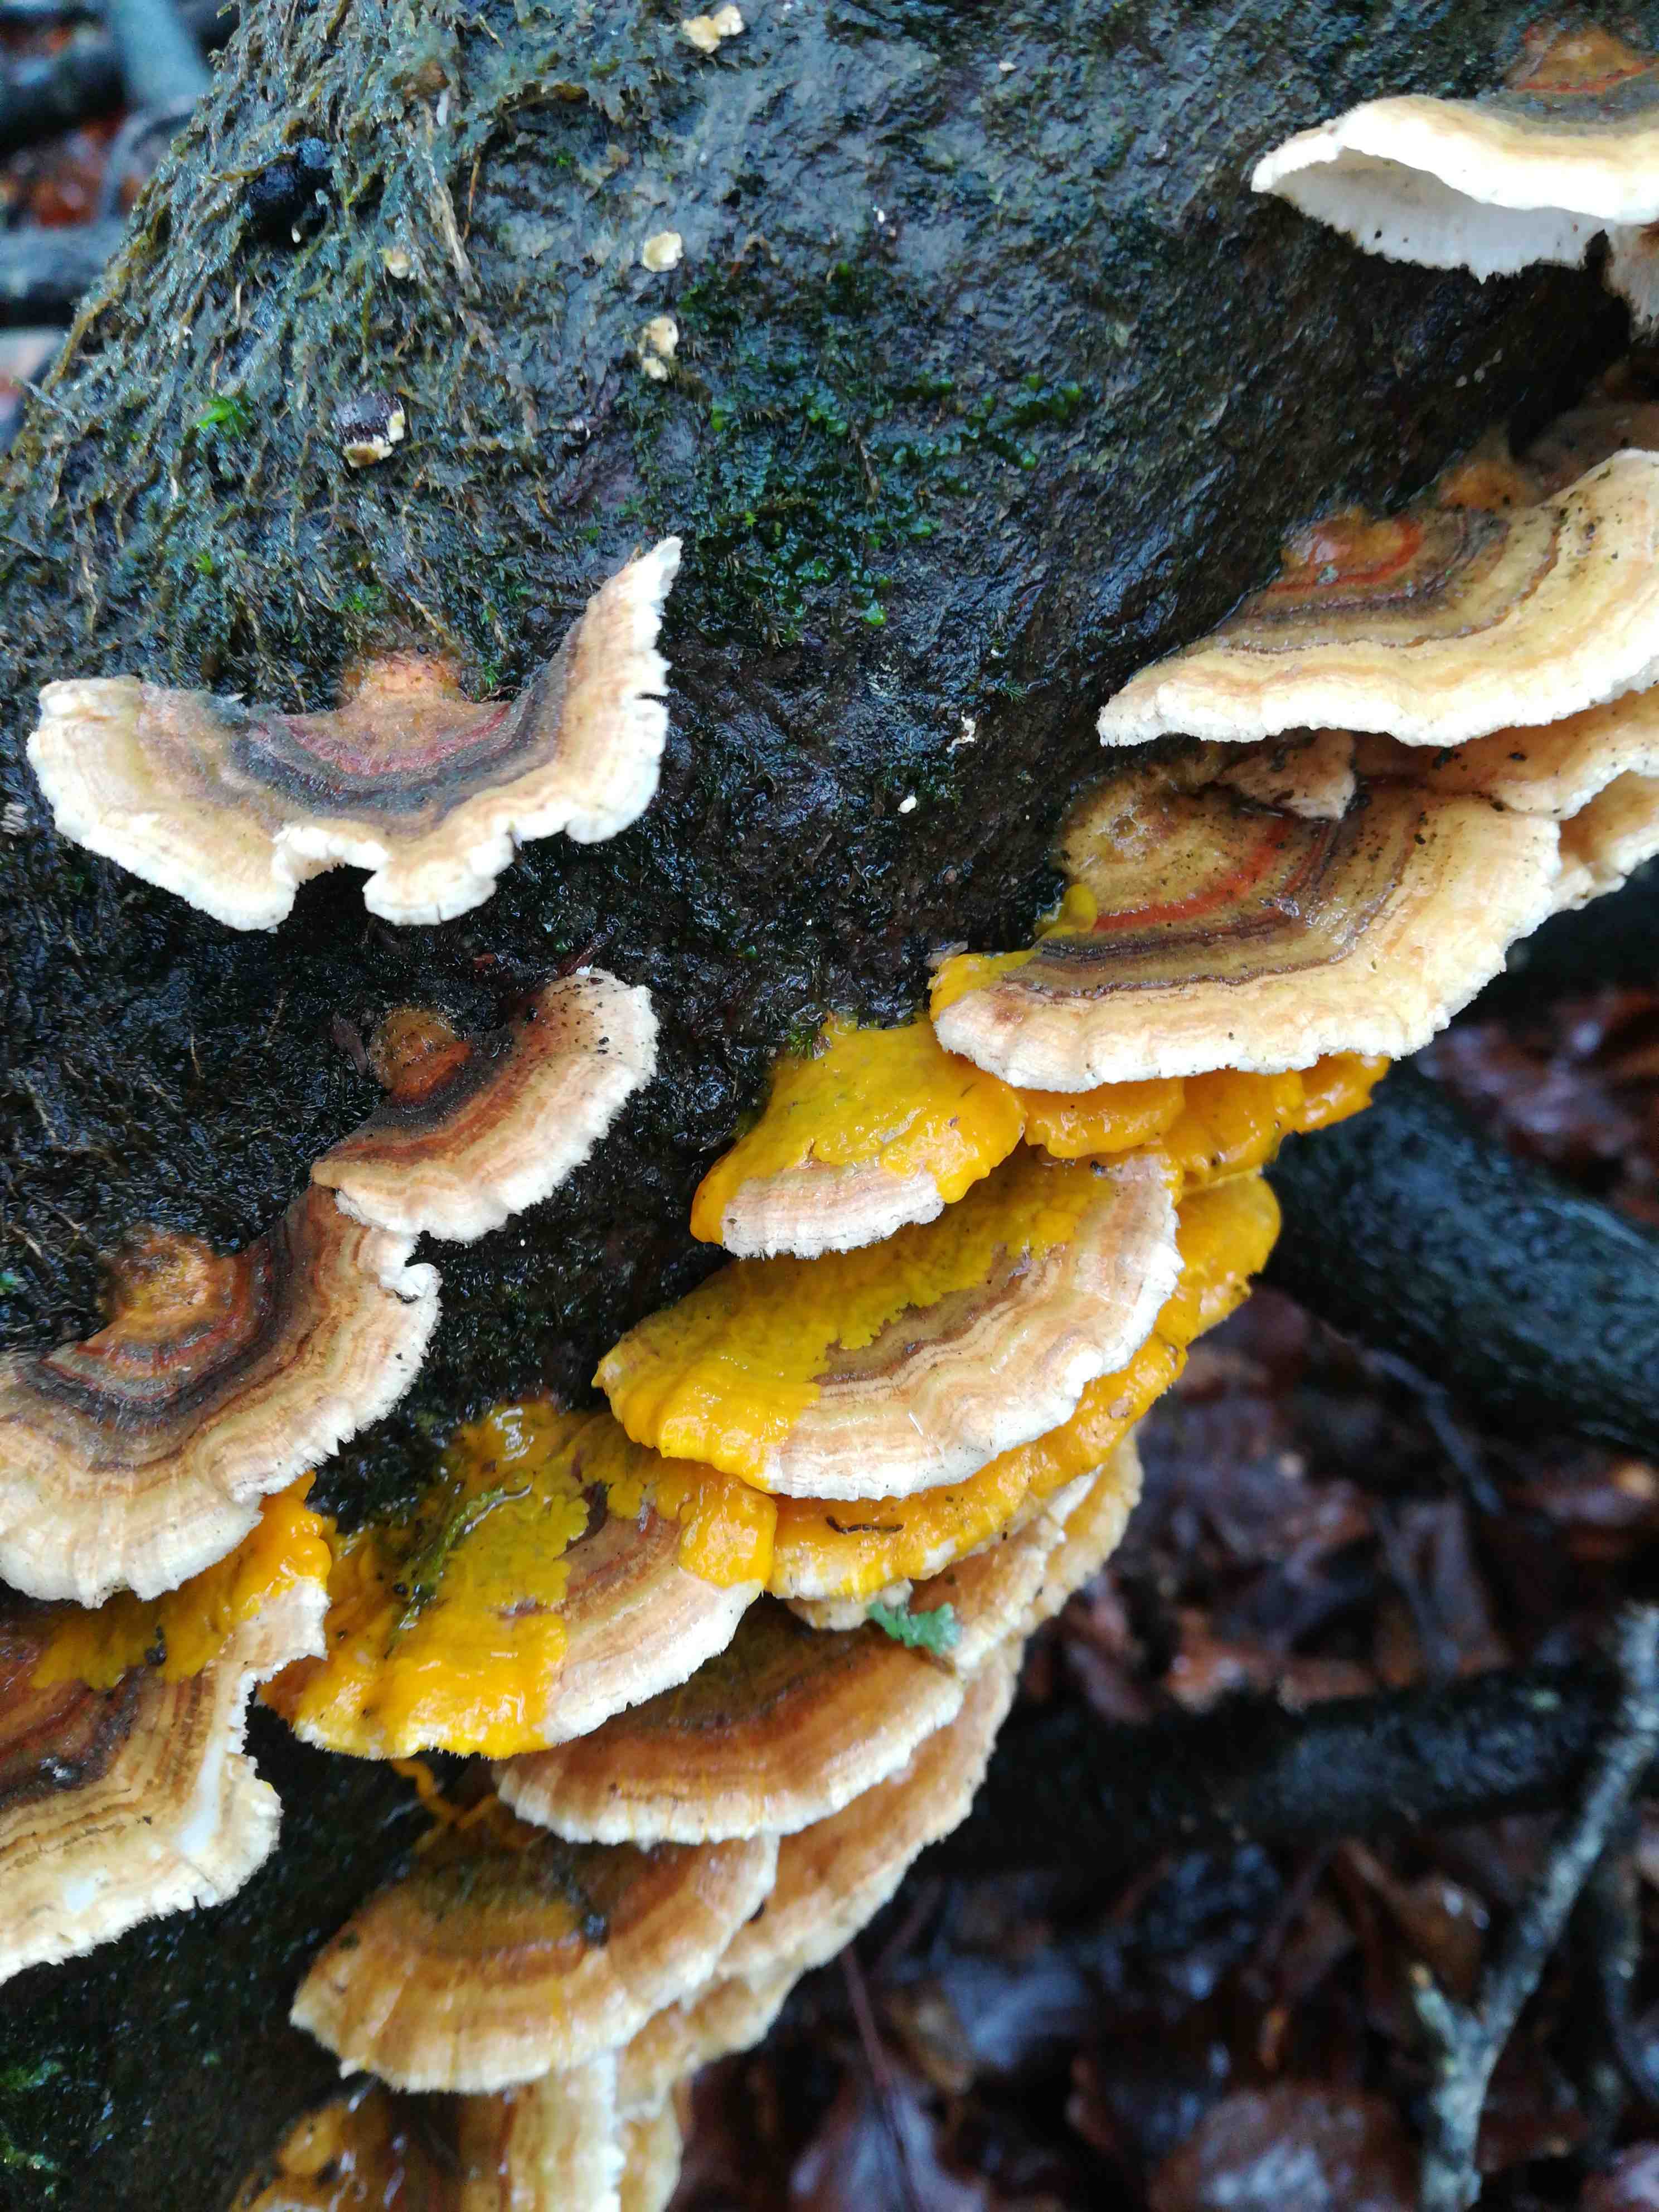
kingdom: Fungi
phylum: Basidiomycota
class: Agaricomycetes
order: Polyporales
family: Polyporaceae
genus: Trametes
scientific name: Trametes versicolor
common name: broget læderporesvamp
